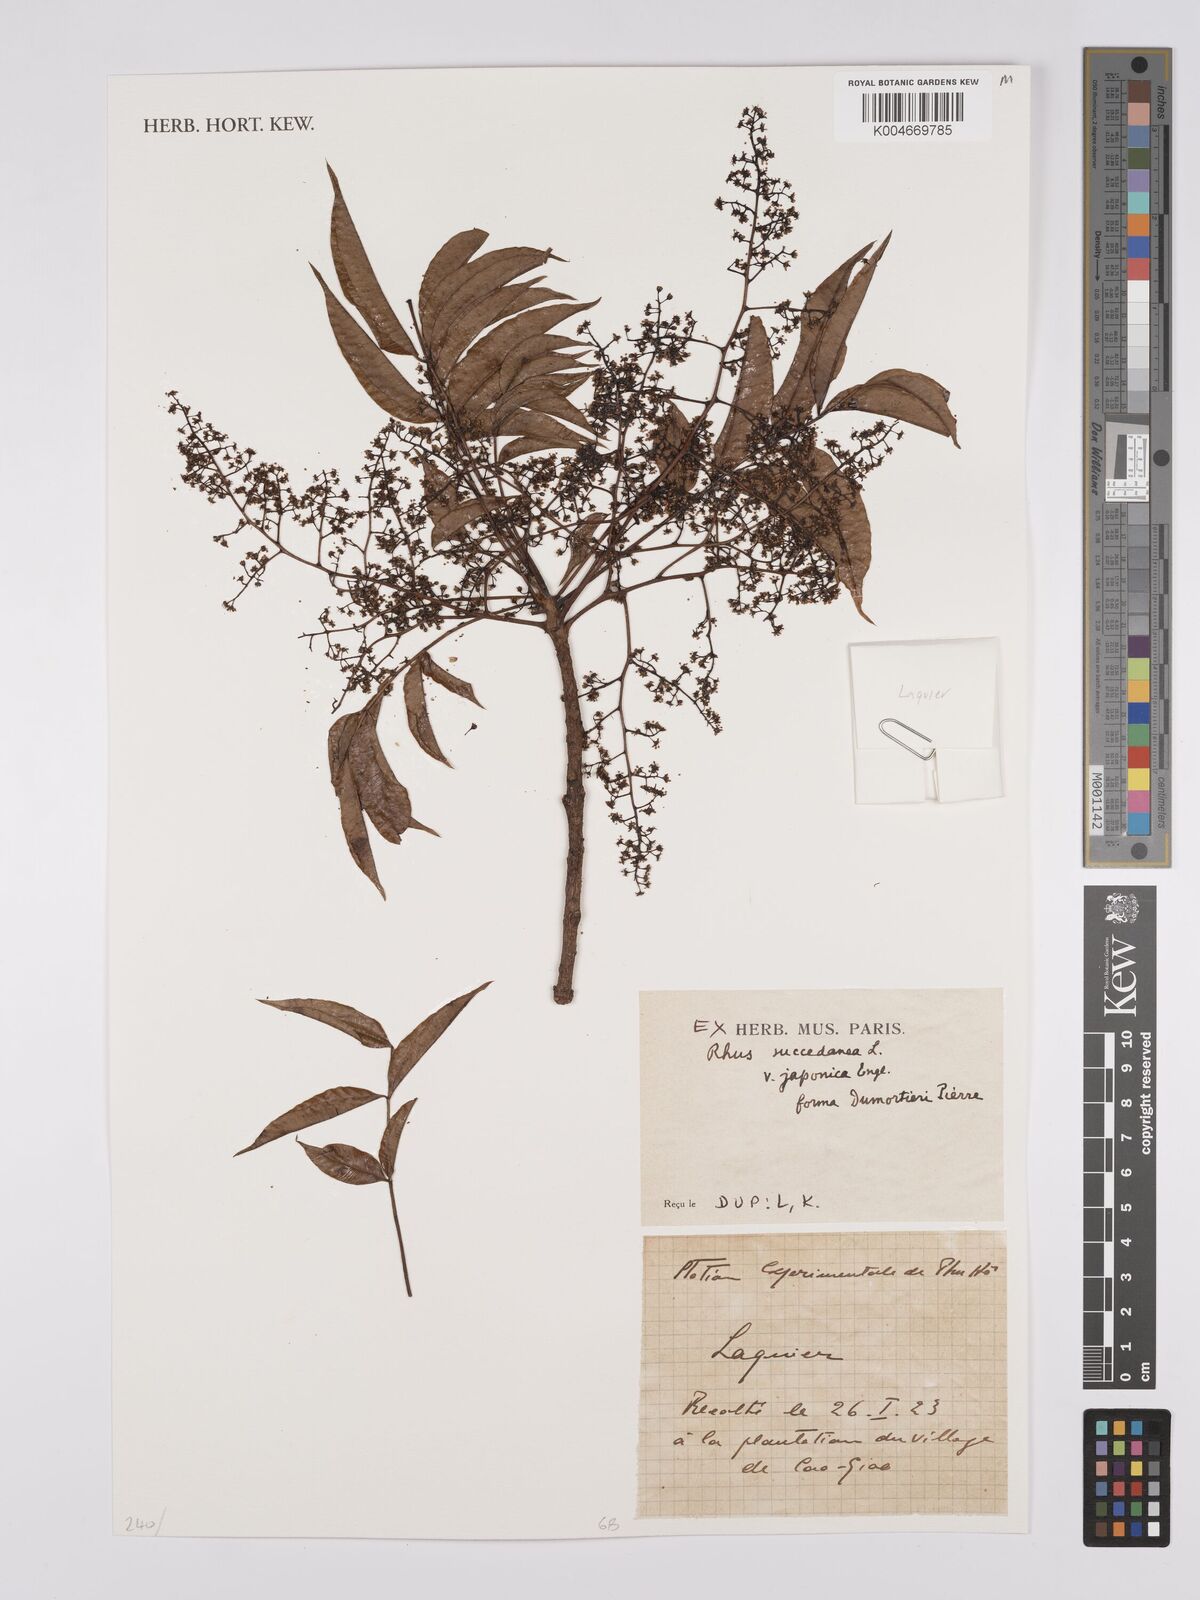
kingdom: Plantae
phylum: Tracheophyta
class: Magnoliopsida
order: Sapindales
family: Anacardiaceae
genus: Toxicodendron
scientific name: Toxicodendron succedaneum
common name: Wax tree
